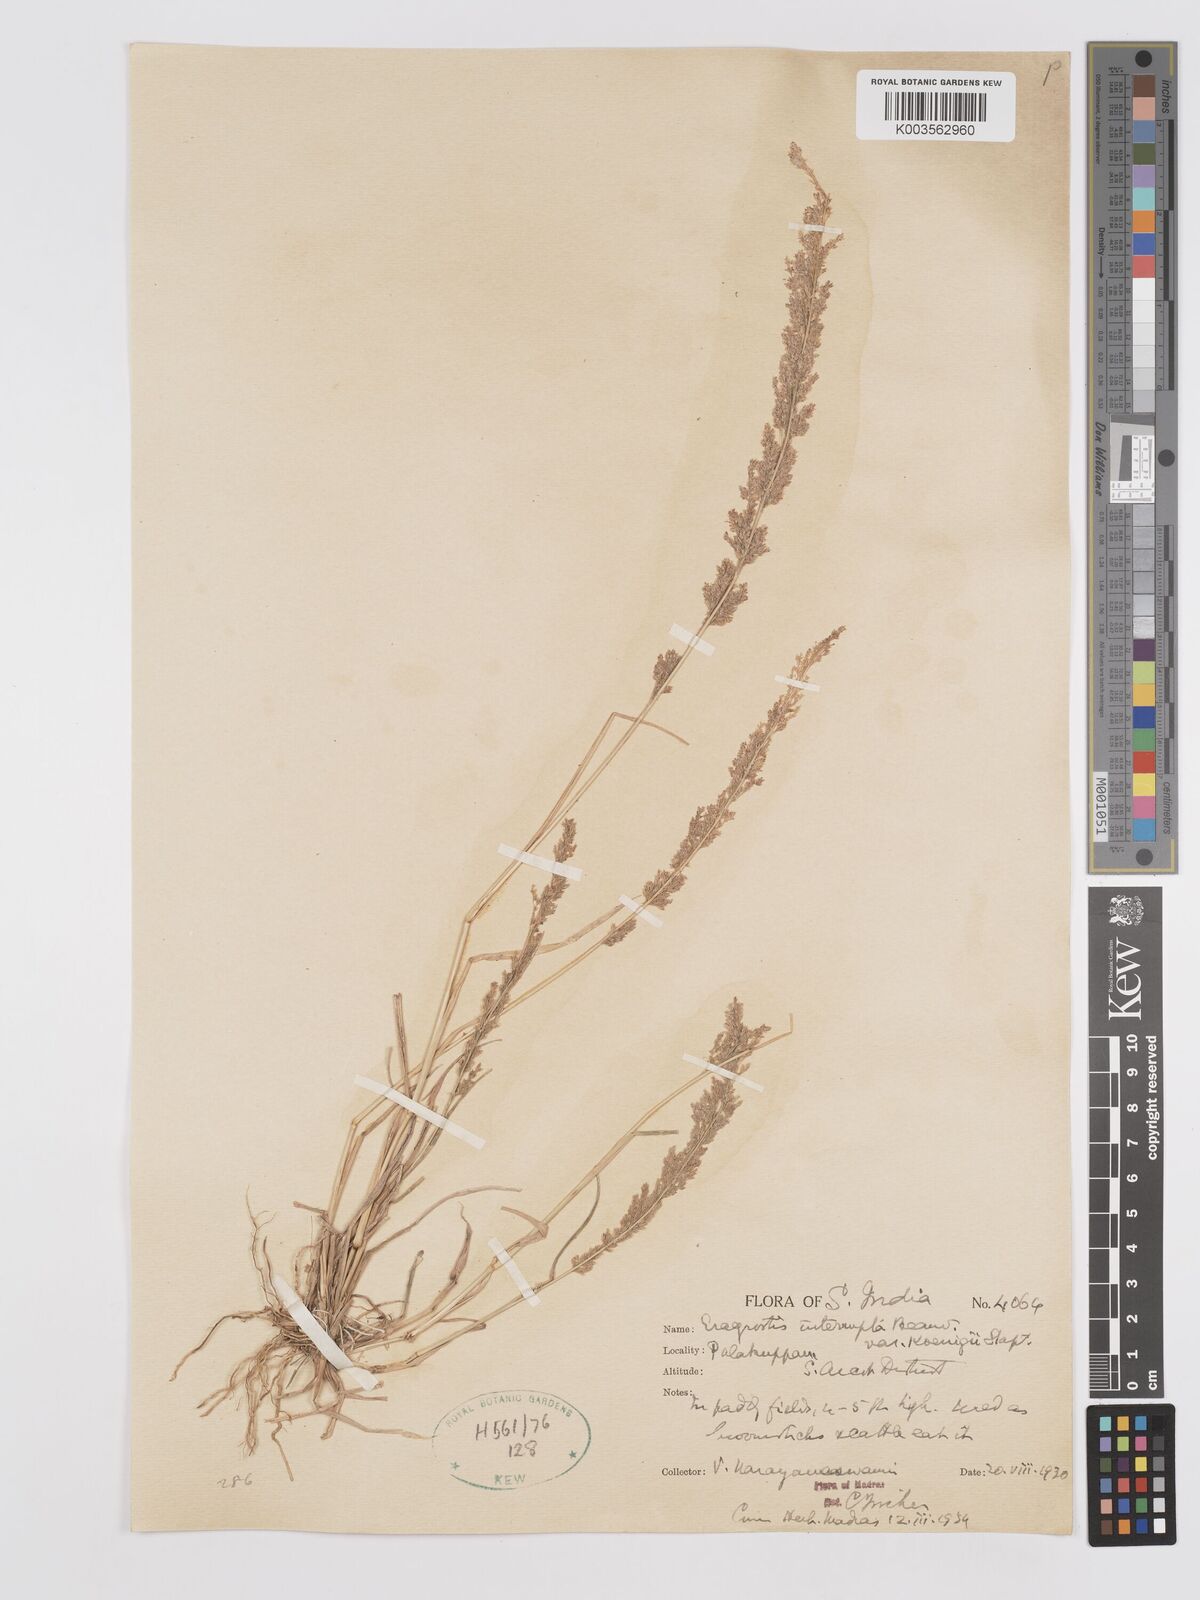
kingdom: Plantae
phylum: Tracheophyta
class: Liliopsida
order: Poales
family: Poaceae
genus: Eragrostis
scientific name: Eragrostis japonica
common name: Pond lovegrass
